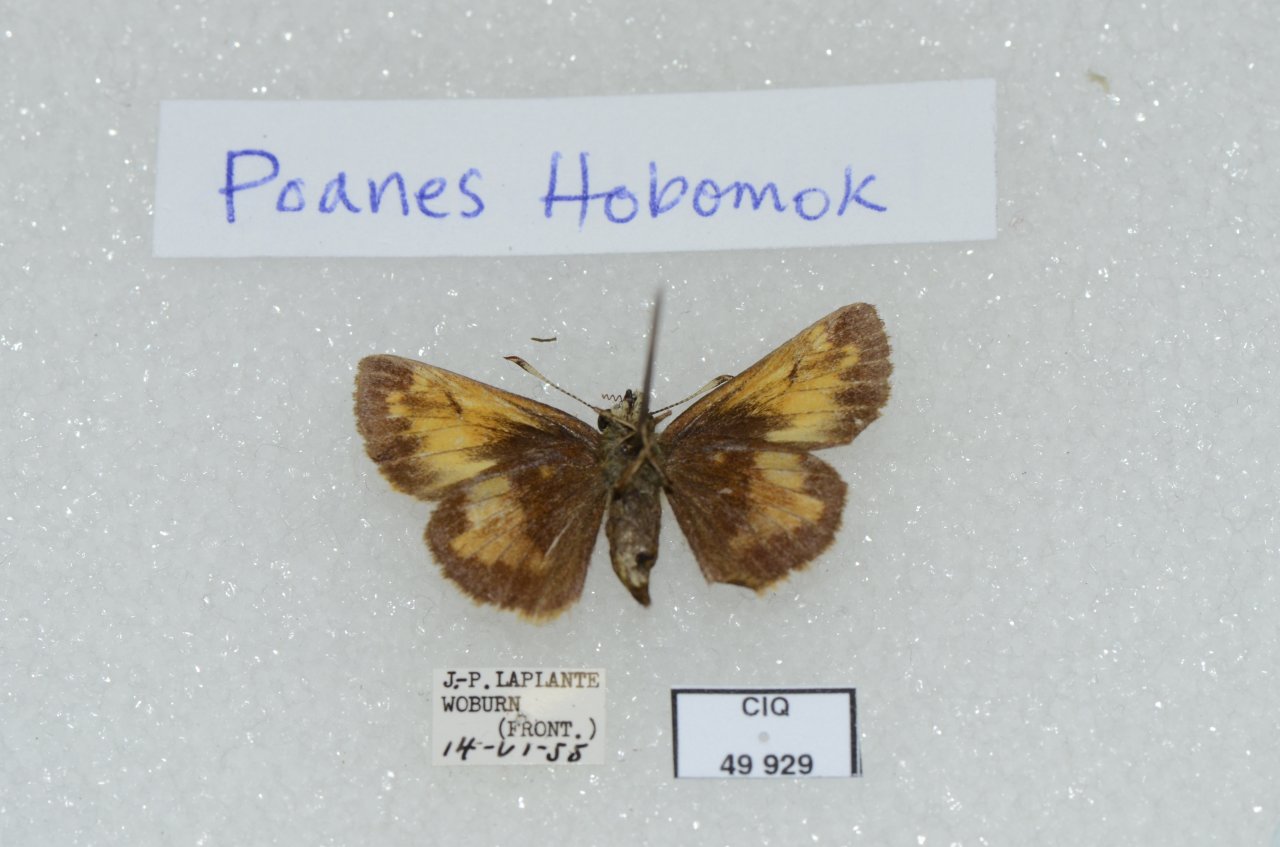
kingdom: Animalia
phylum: Arthropoda
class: Insecta
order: Lepidoptera
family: Hesperiidae
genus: Lon
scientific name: Lon hobomok
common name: Hobomok Skipper
